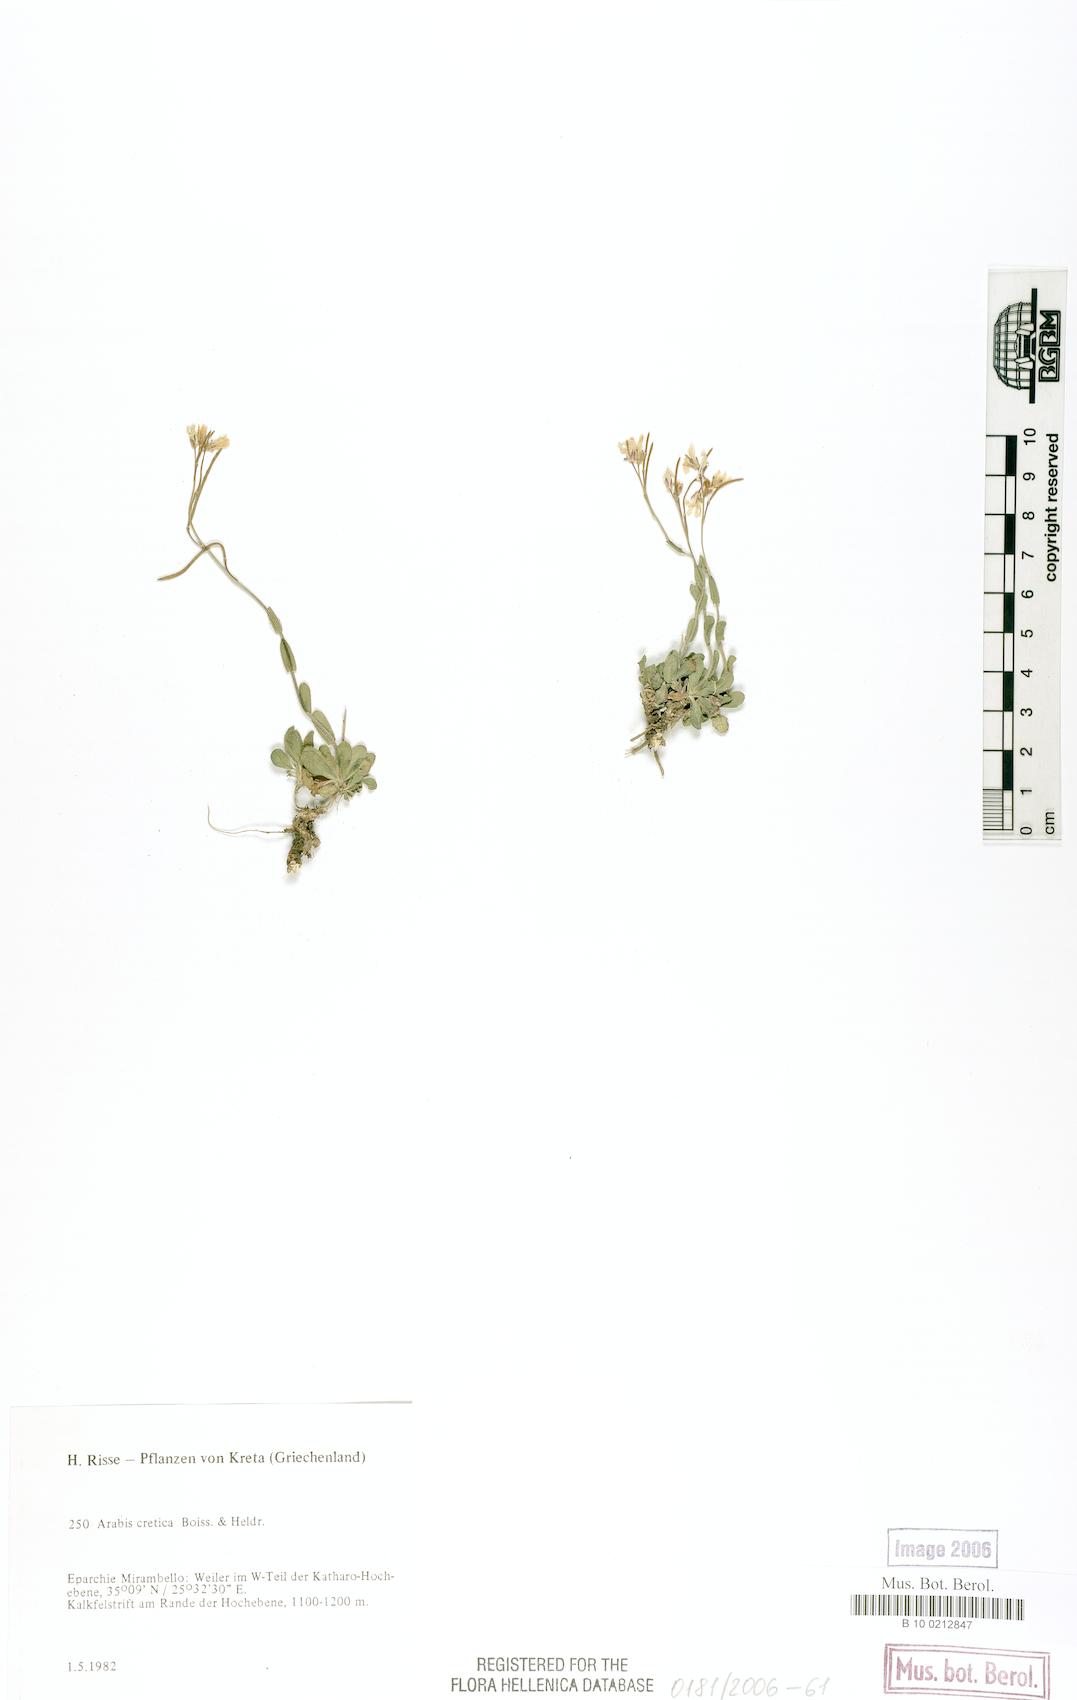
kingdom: Plantae
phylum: Tracheophyta
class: Magnoliopsida
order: Brassicales
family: Brassicaceae
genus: Arabis
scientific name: Arabis cretica
